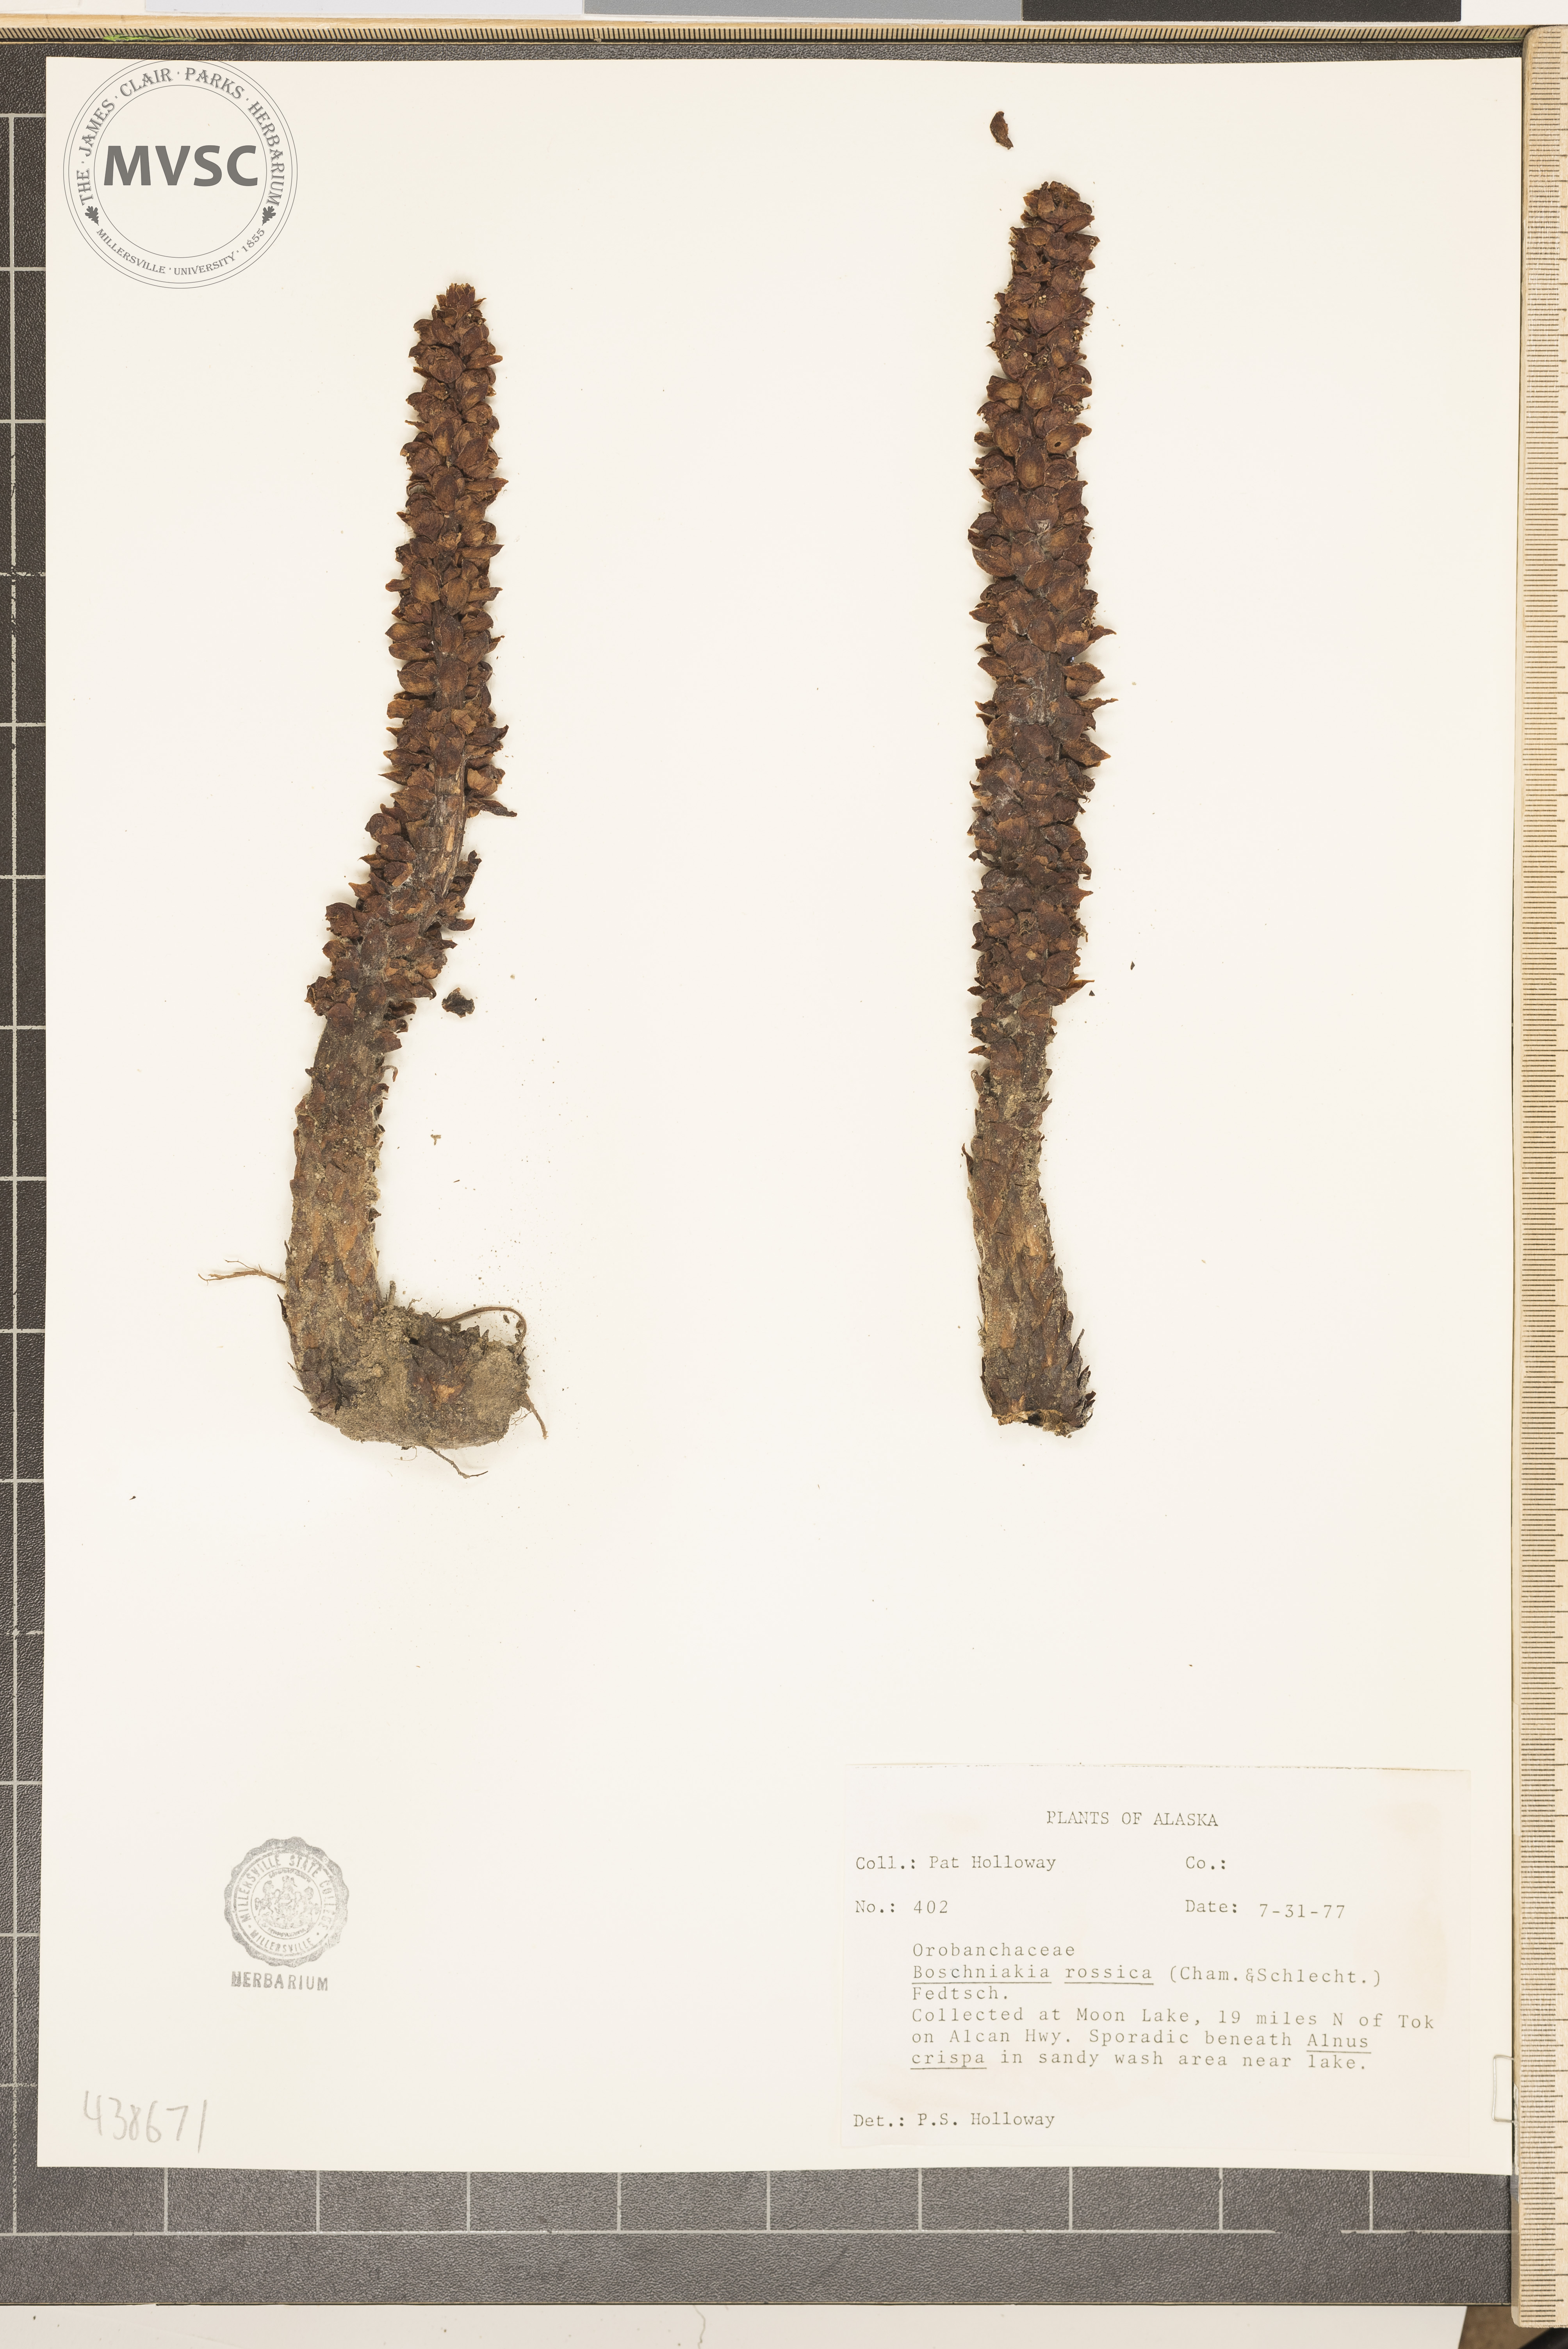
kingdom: Plantae
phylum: Tracheophyta
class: Magnoliopsida
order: Lamiales
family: Orobanchaceae
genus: Boschniakia
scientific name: Boschniakia rossica
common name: Poque
